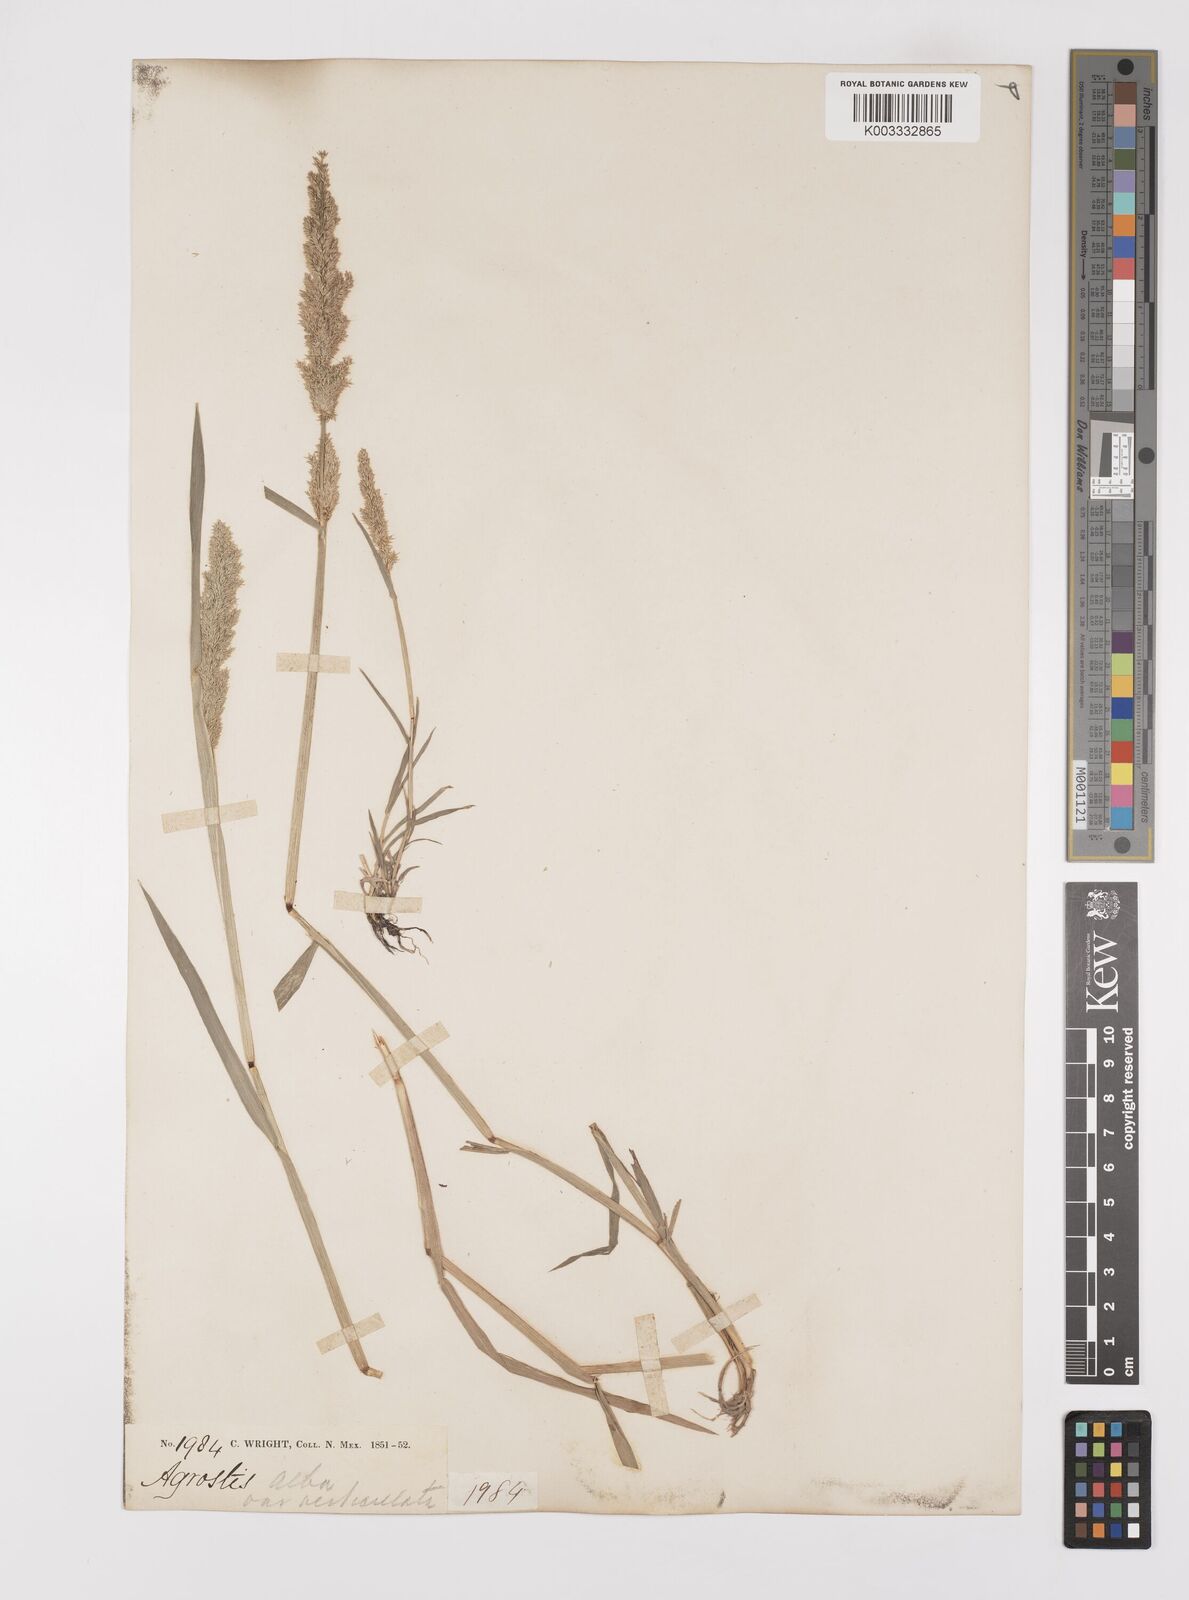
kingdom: Plantae
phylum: Tracheophyta
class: Liliopsida
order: Poales
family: Poaceae
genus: Polypogon
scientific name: Polypogon viridis
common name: Water bent
